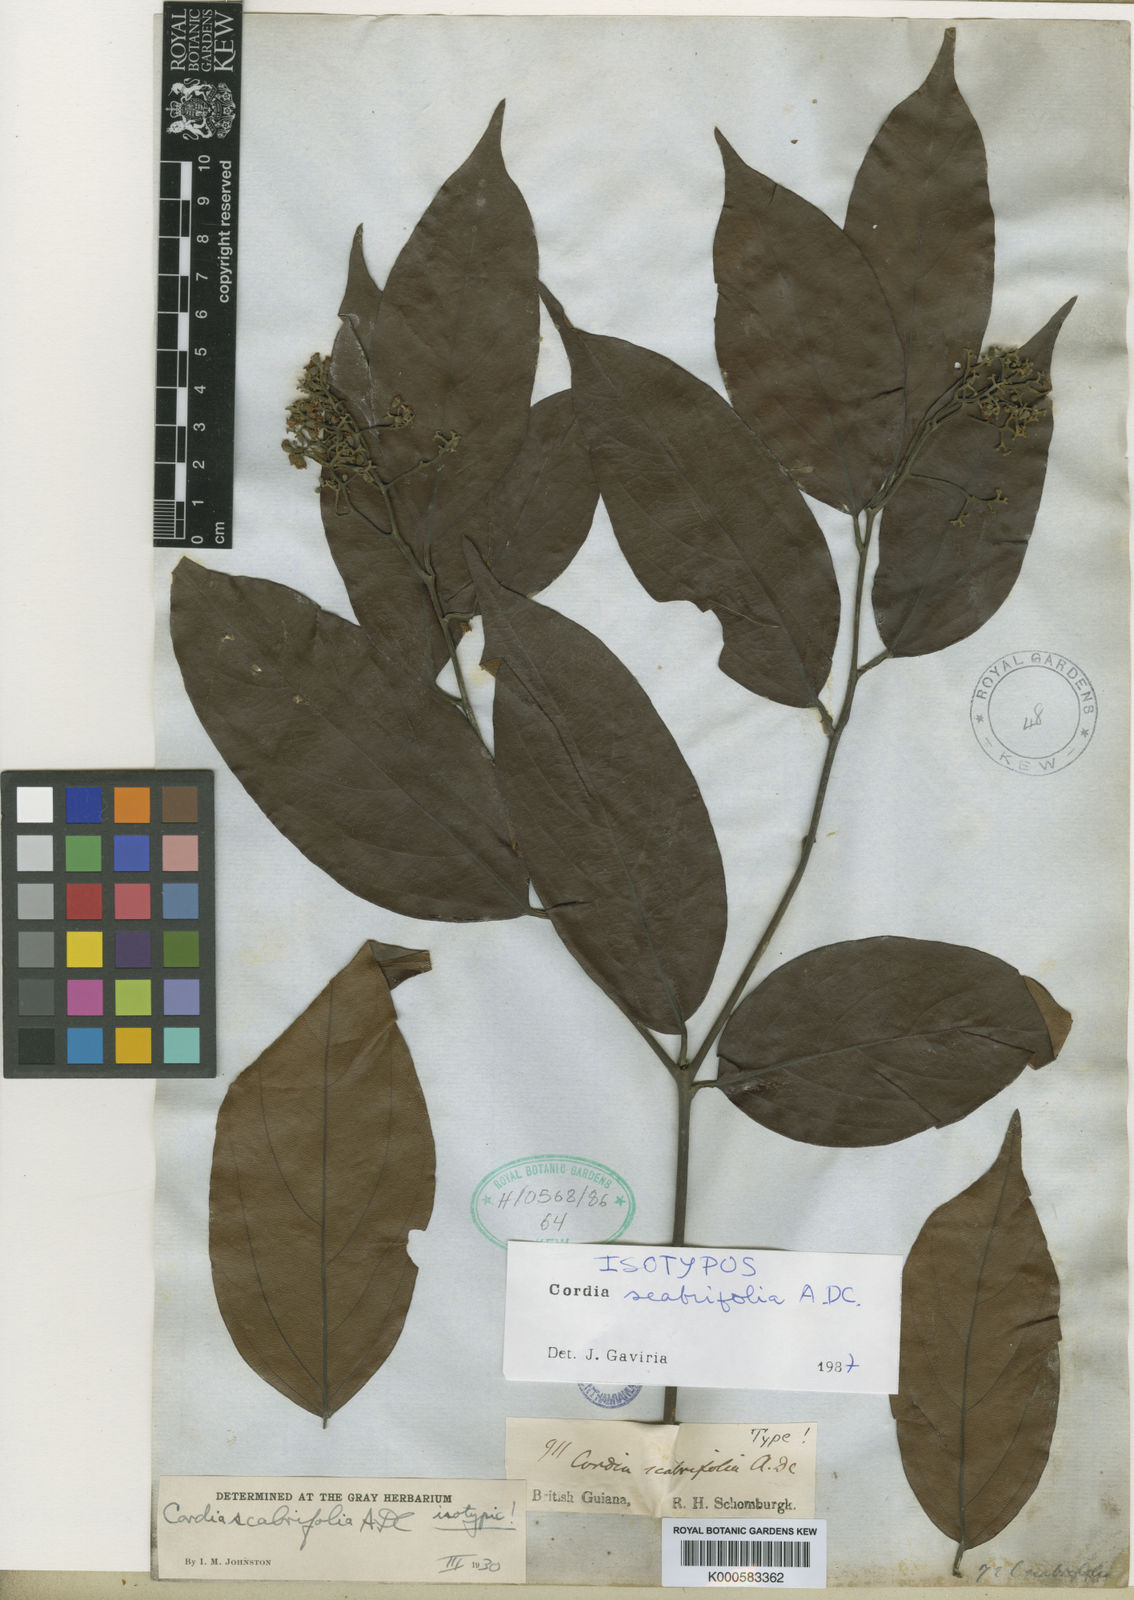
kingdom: Plantae
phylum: Tracheophyta
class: Magnoliopsida
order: Boraginales
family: Cordiaceae
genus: Cordia
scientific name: Cordia scabrifolia
